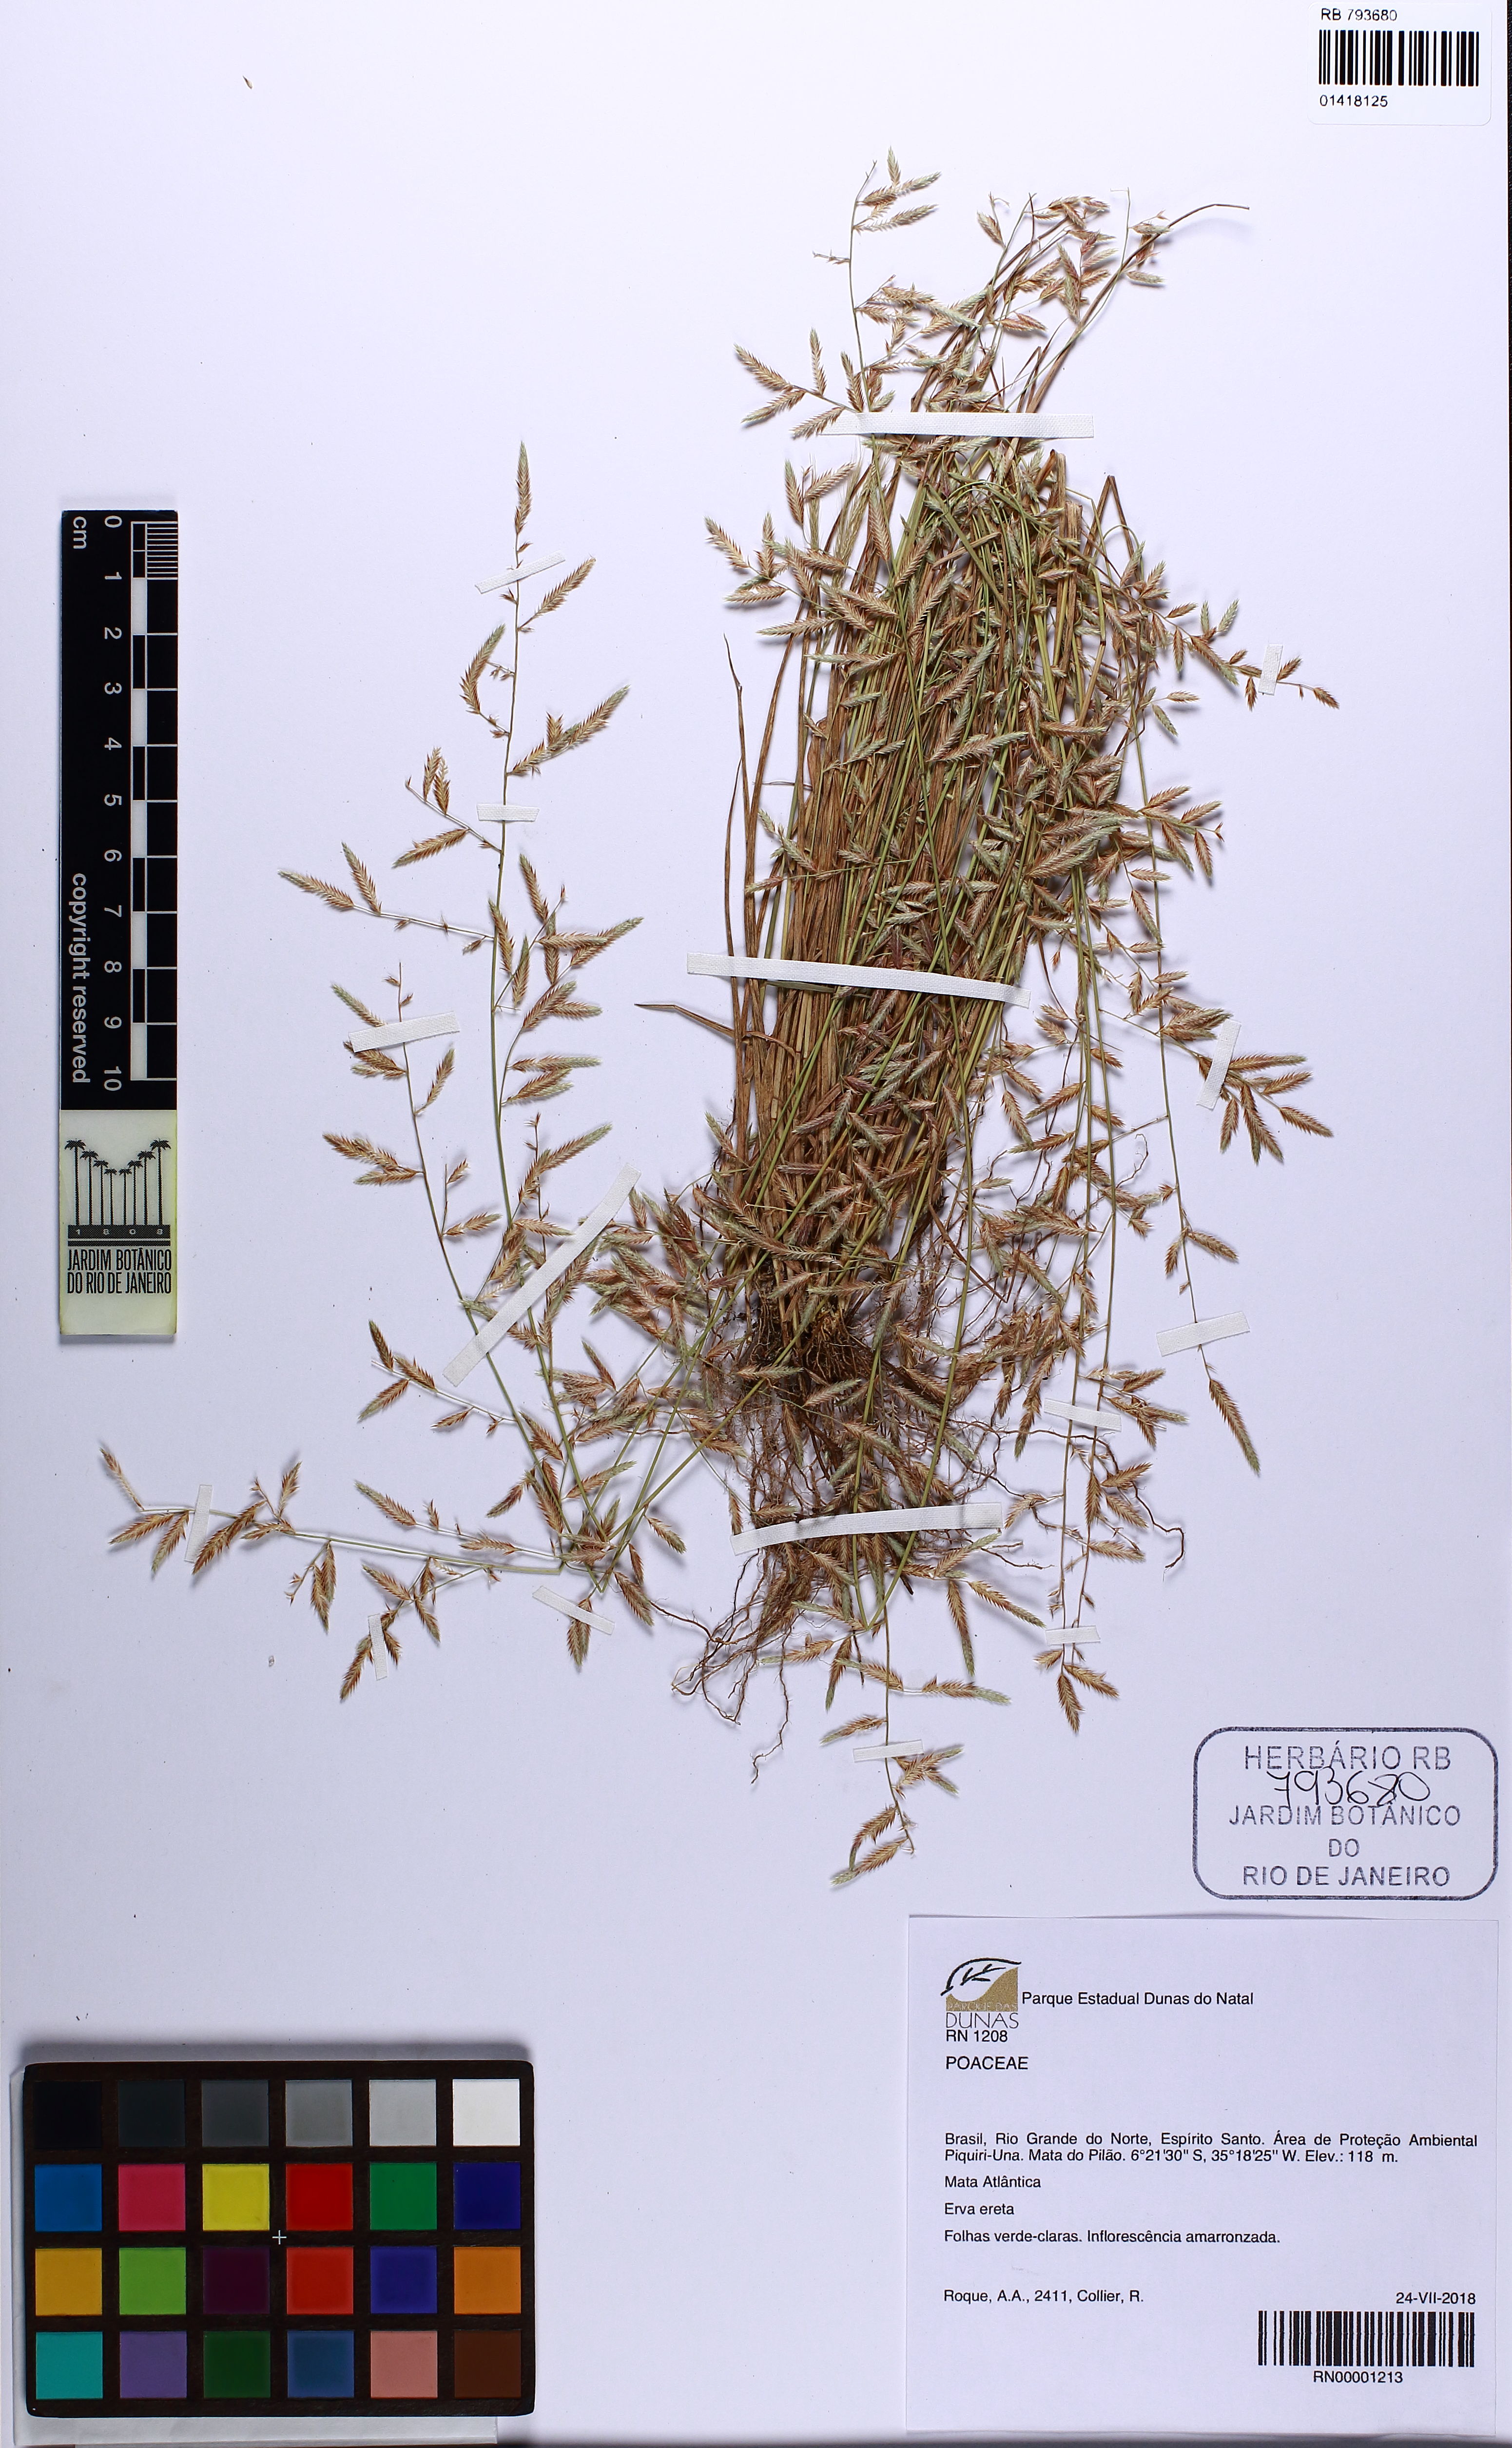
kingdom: Plantae
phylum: Tracheophyta
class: Liliopsida
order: Poales
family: Poaceae
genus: Eragrostis
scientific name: Eragrostis
